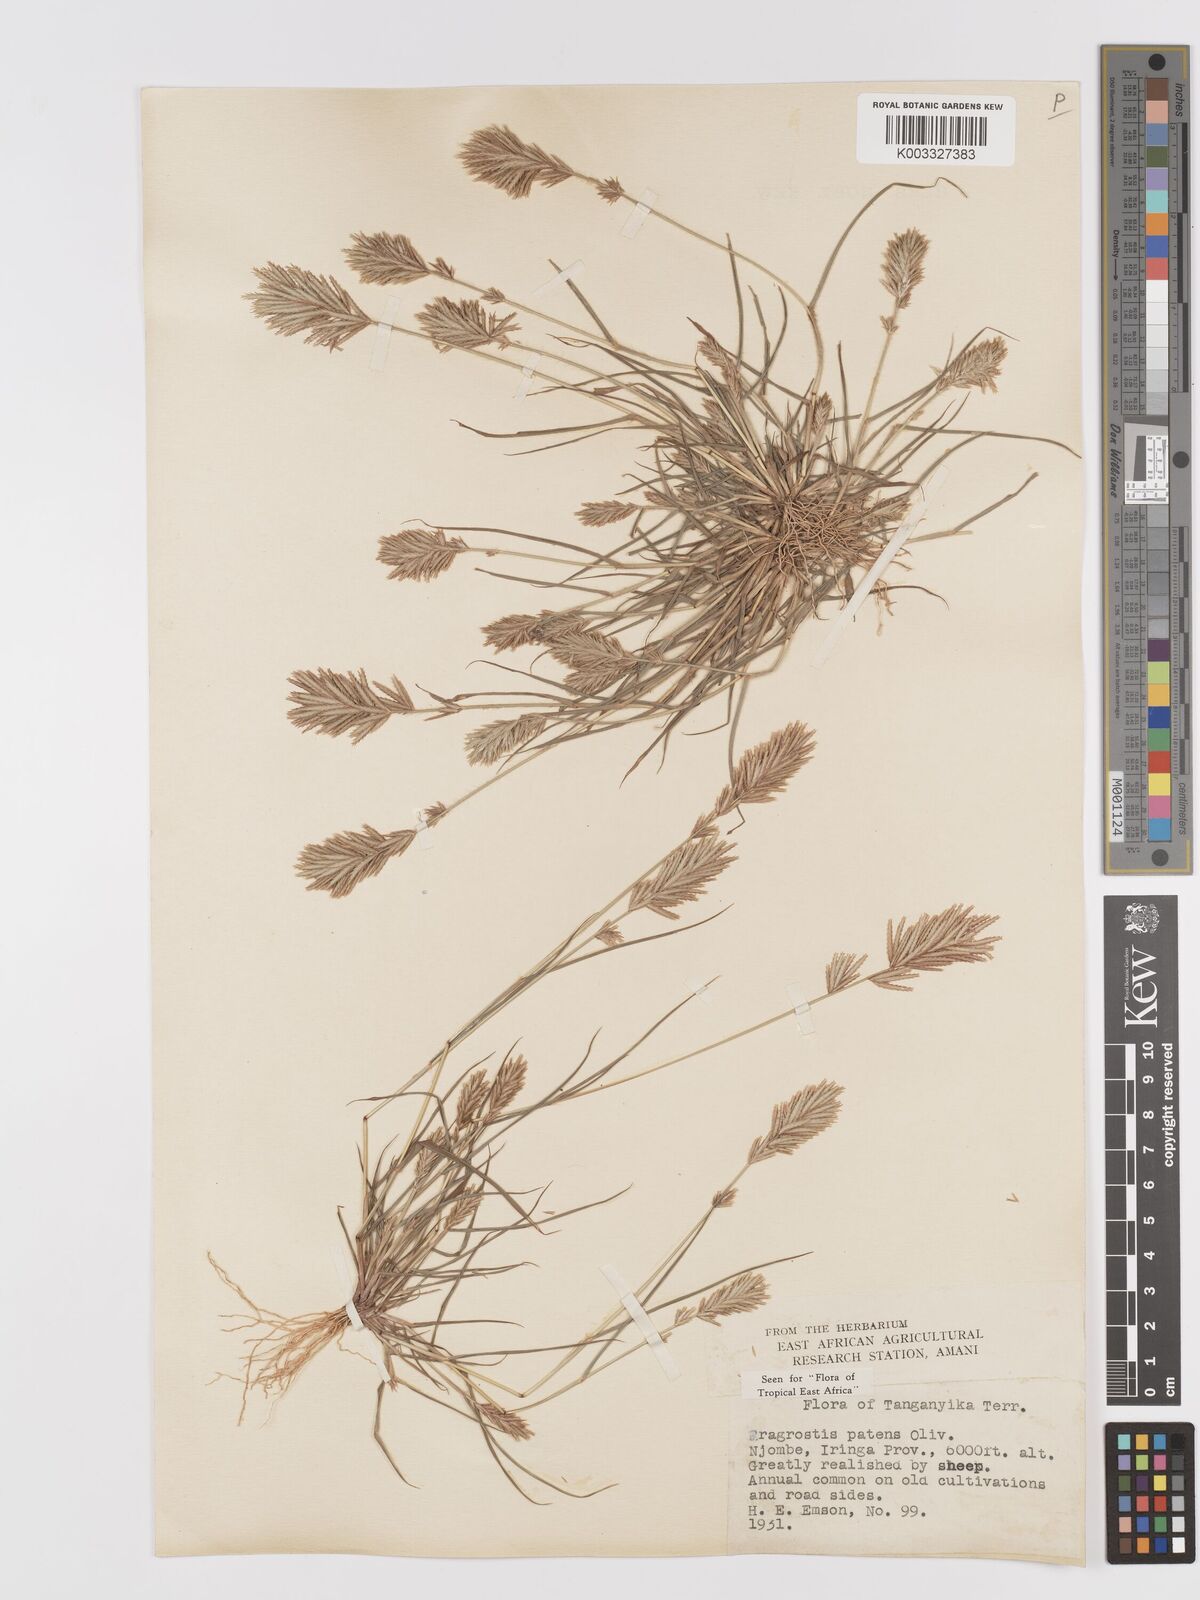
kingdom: Plantae
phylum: Tracheophyta
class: Liliopsida
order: Poales
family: Poaceae
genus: Eragrostis
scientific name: Eragrostis patens
